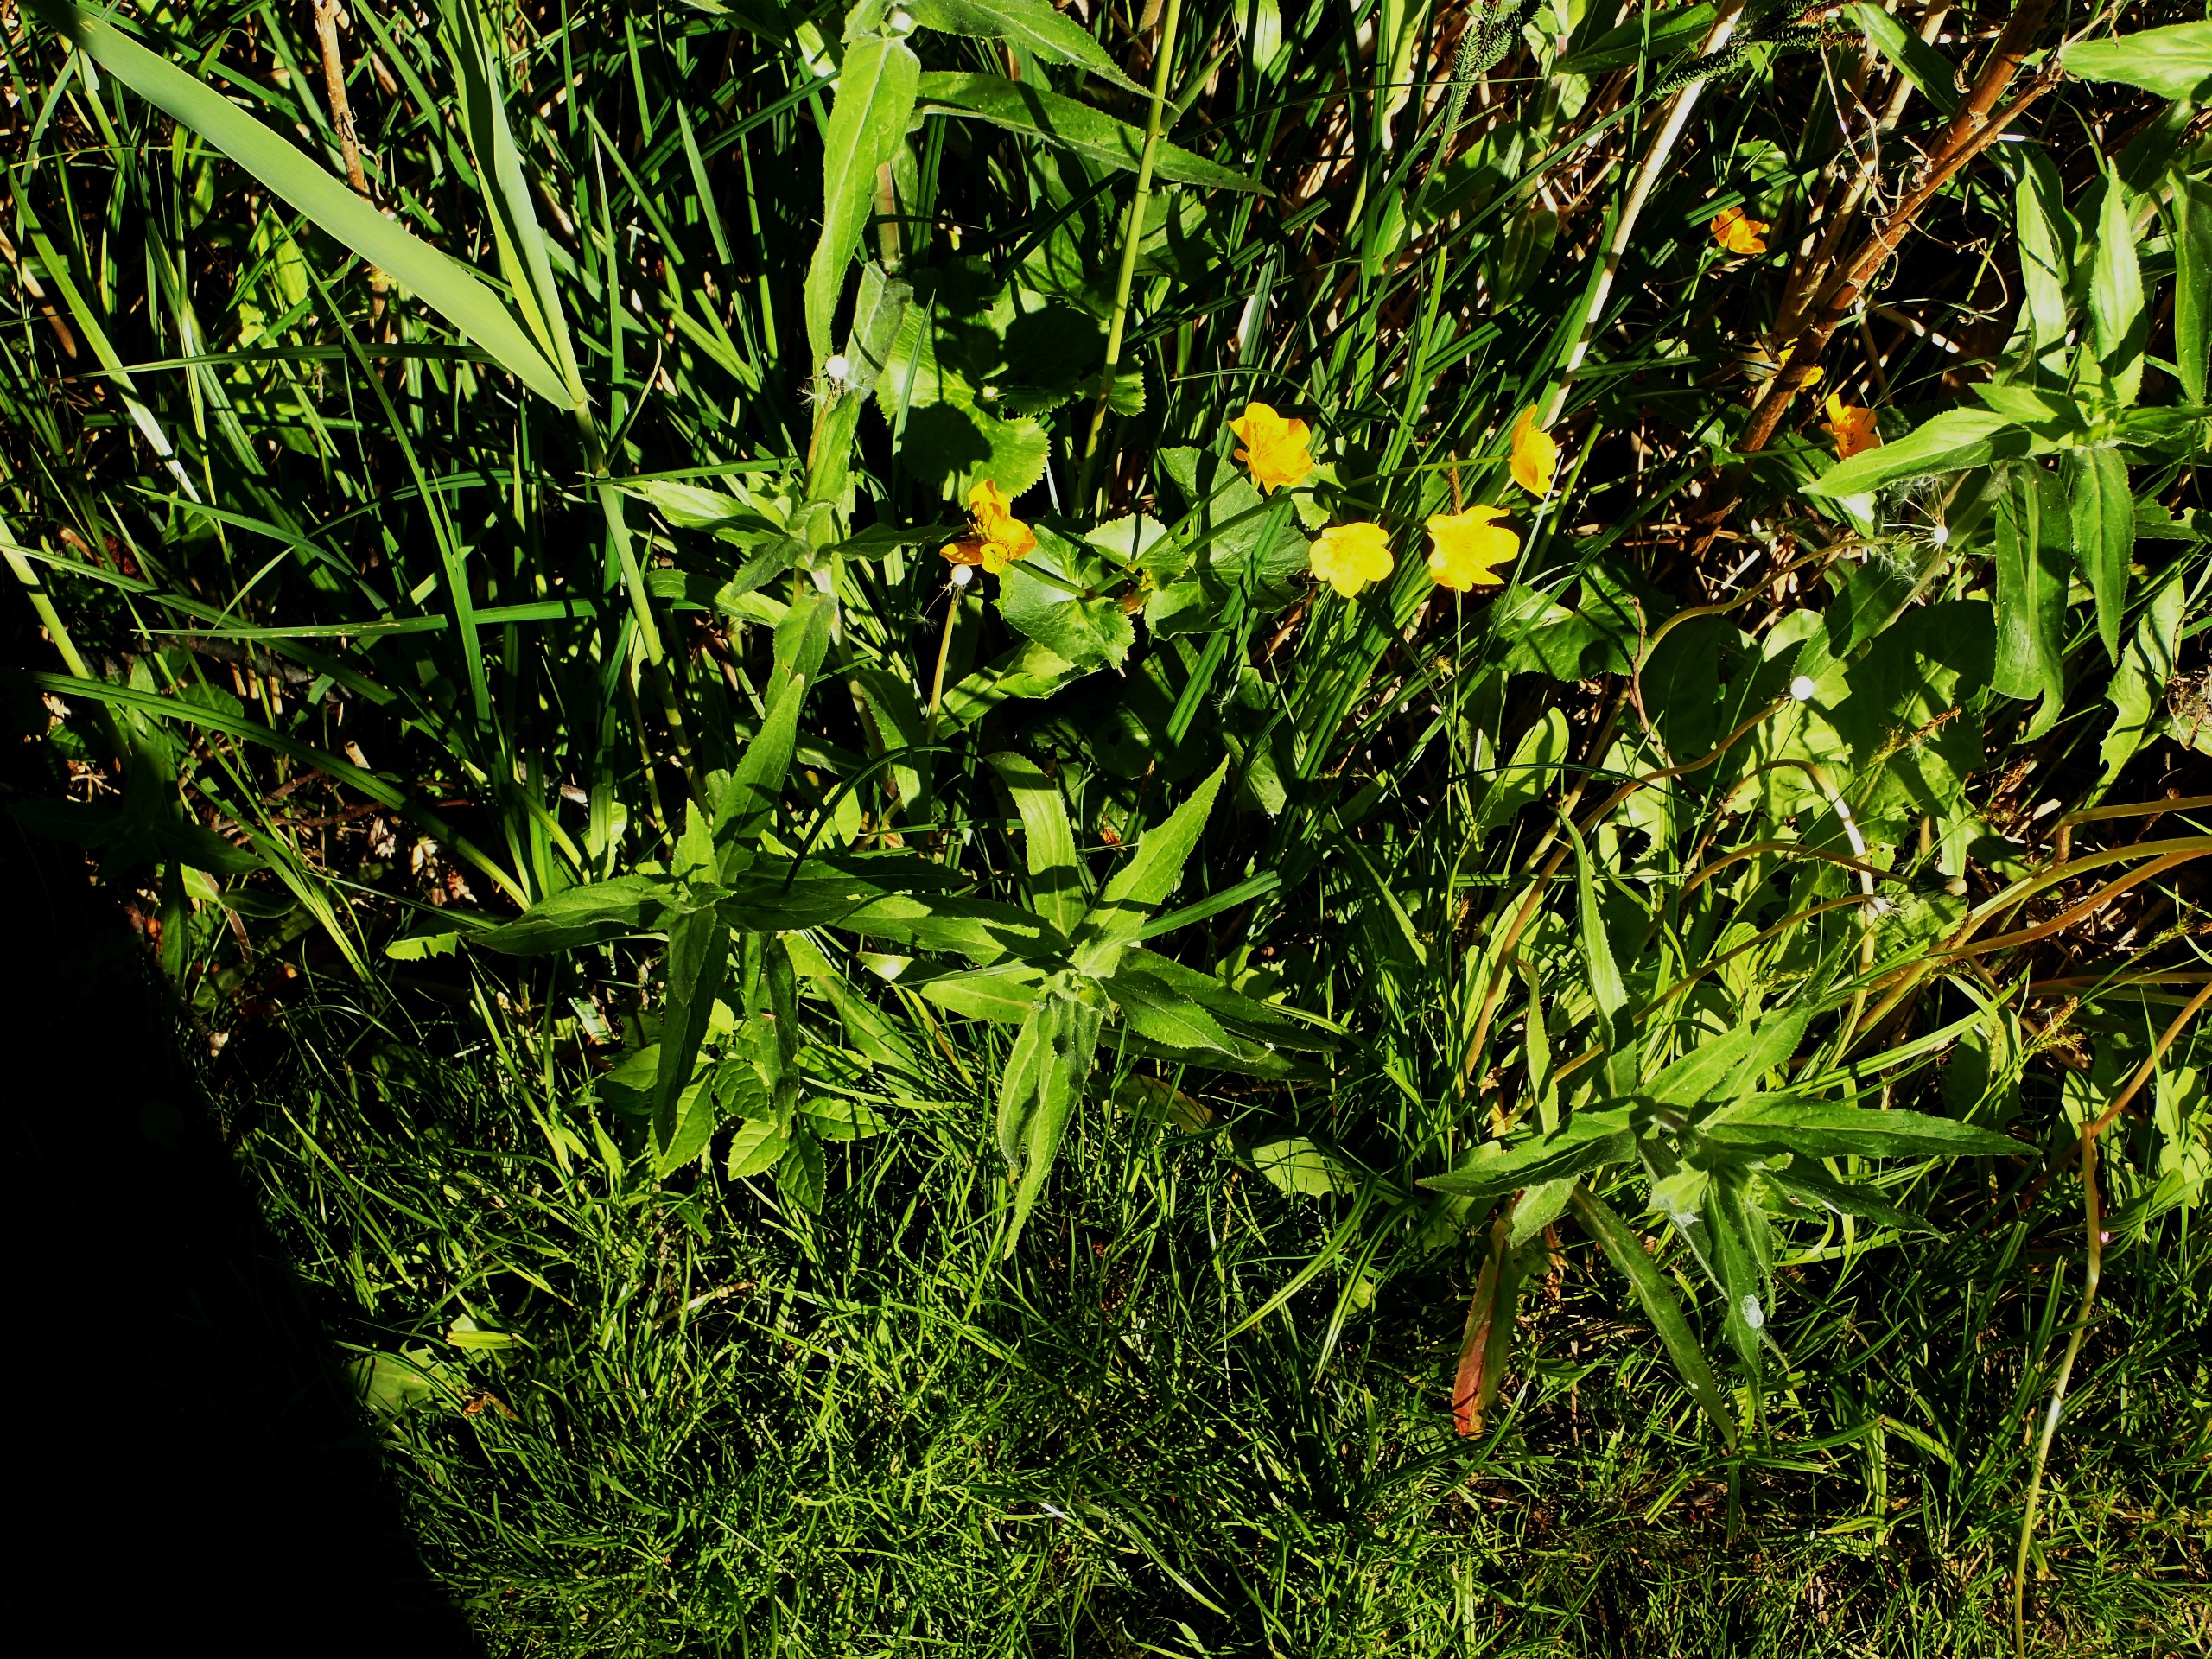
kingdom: Plantae
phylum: Tracheophyta
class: Magnoliopsida
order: Ranunculales
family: Ranunculaceae
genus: Caltha
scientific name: Caltha palustris
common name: Eng-kabbeleje
